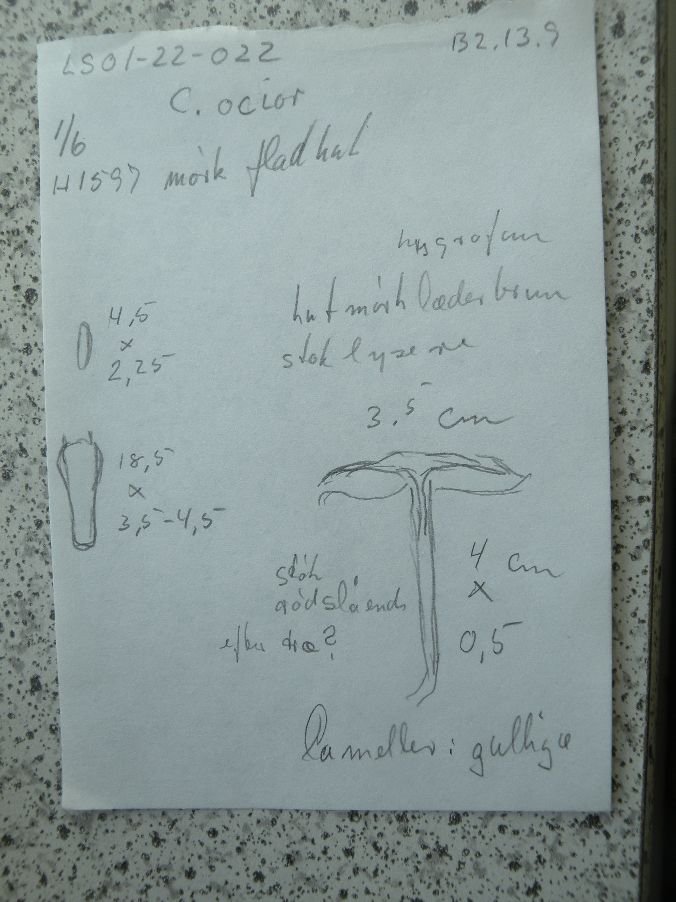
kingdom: Fungi
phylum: Basidiomycota
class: Agaricomycetes
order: Agaricales
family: Omphalotaceae
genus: Gymnopus
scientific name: Gymnopus ocior
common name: mørk fladhat
